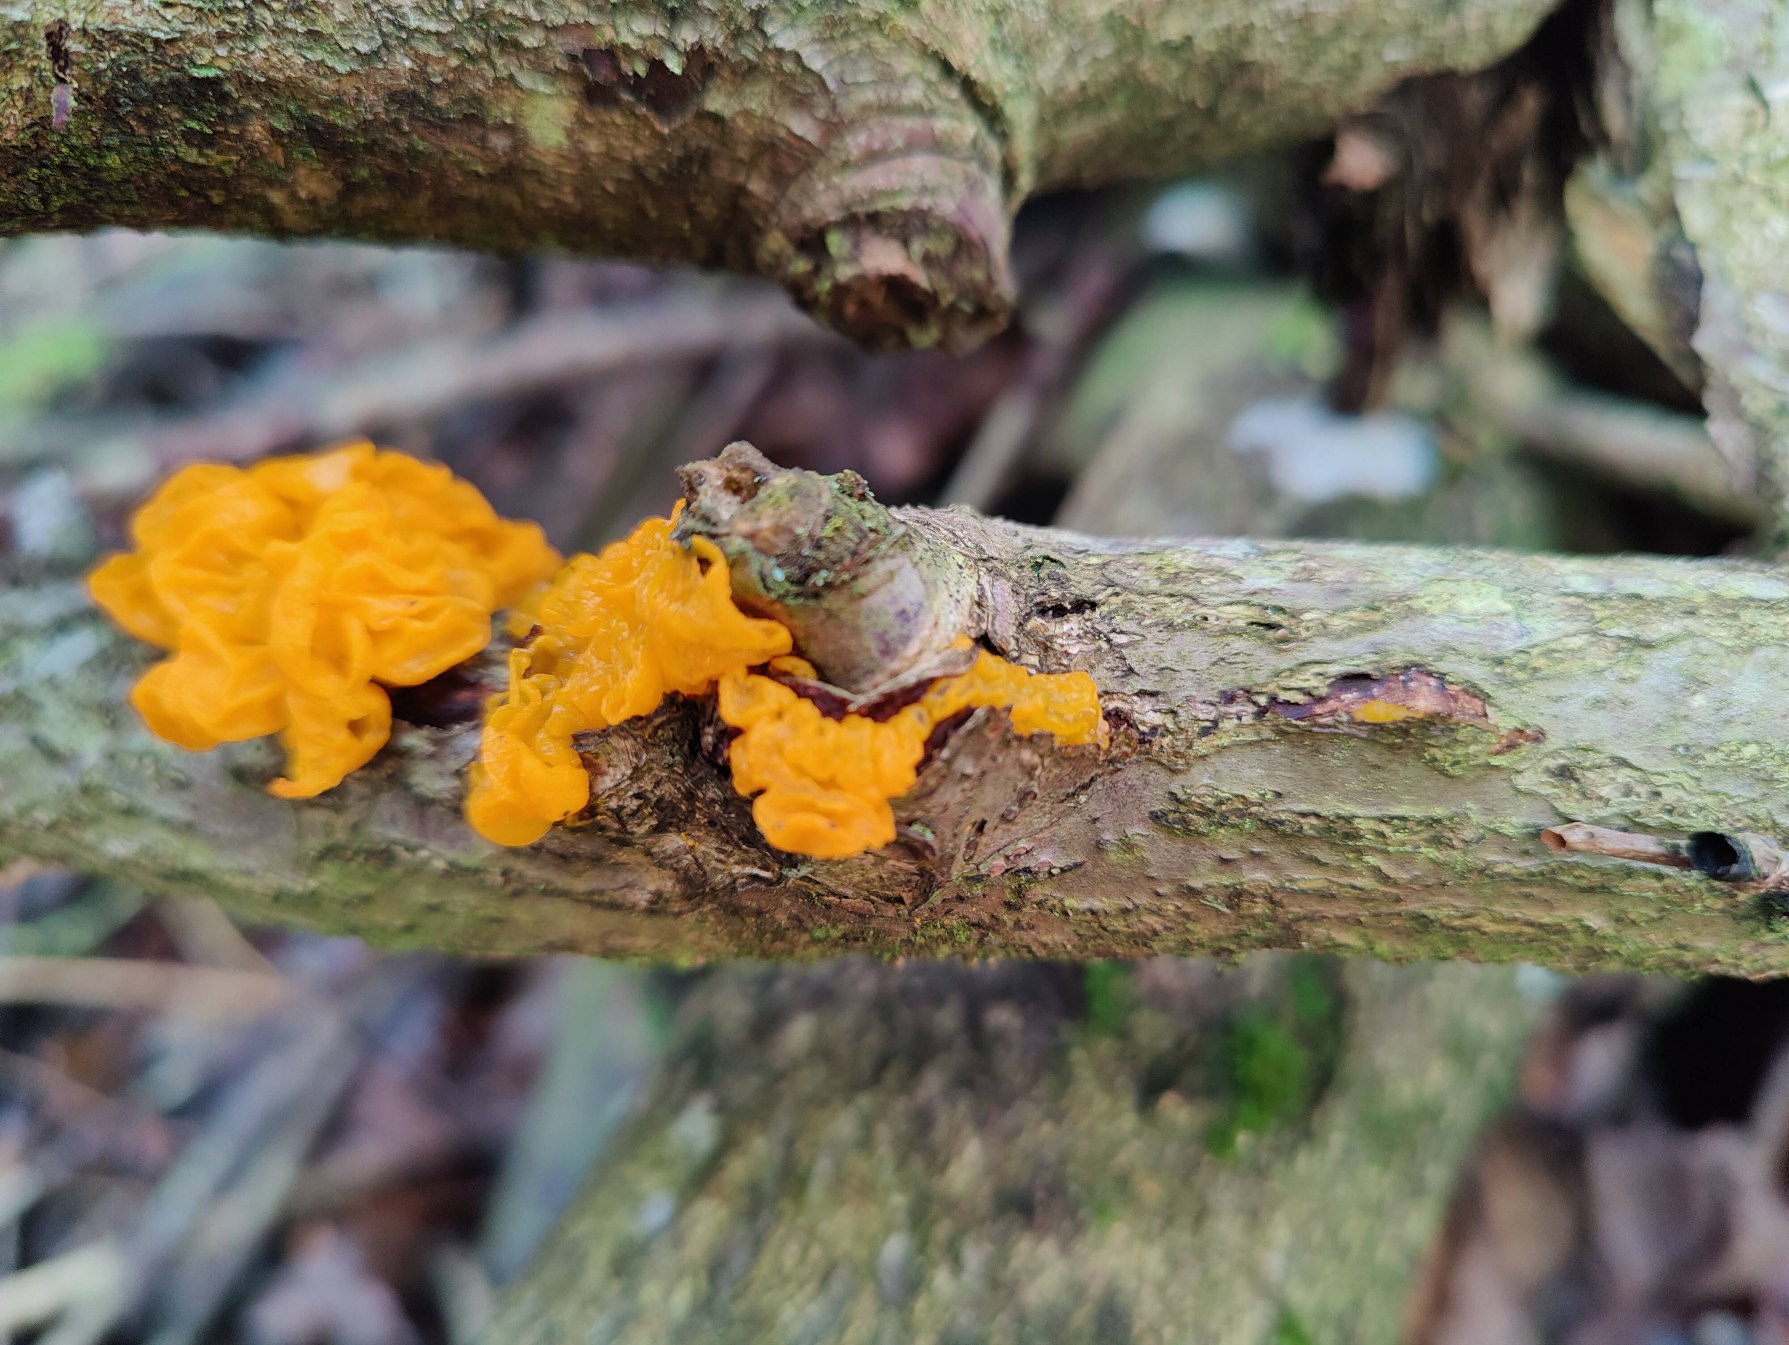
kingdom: Fungi
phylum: Basidiomycota
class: Tremellomycetes
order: Tremellales
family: Tremellaceae
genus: Tremella
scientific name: Tremella mesenterica
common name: Gul bævresvamp
